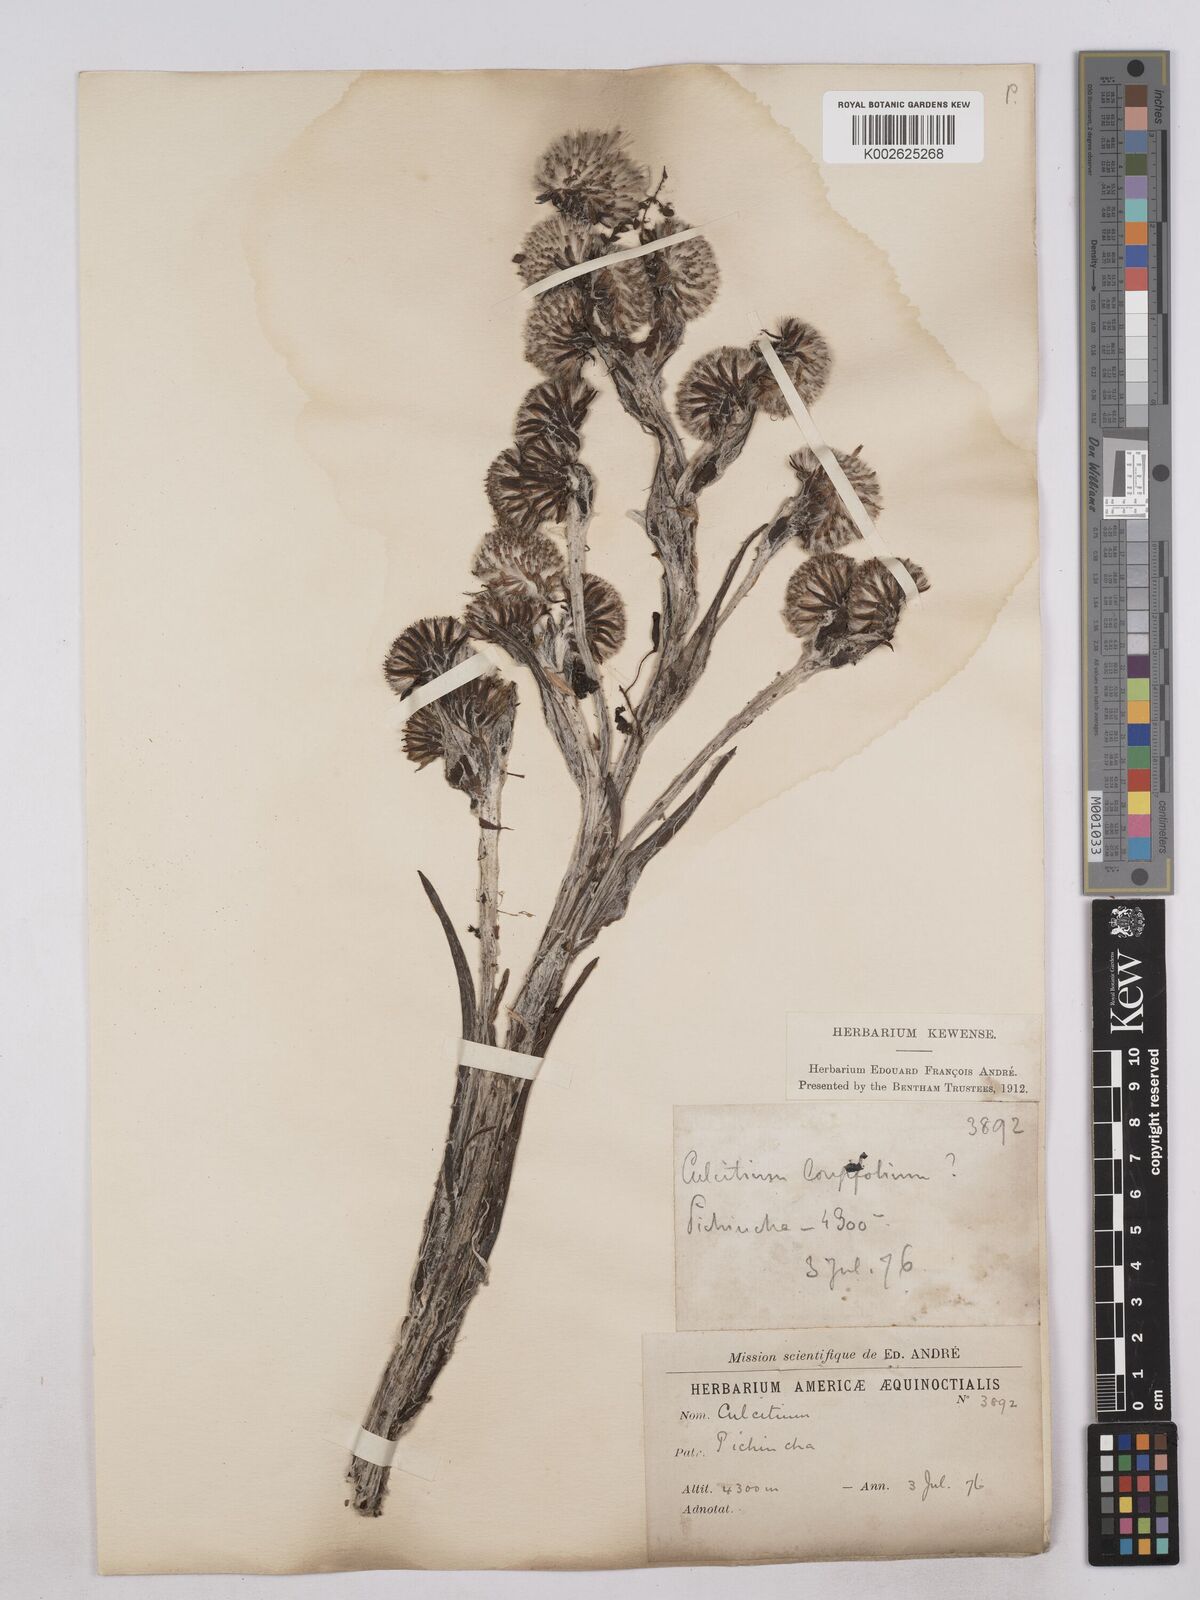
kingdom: Plantae
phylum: Tracheophyta
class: Magnoliopsida
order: Asterales
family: Asteraceae
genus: Senecio
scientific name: Senecio comosus
